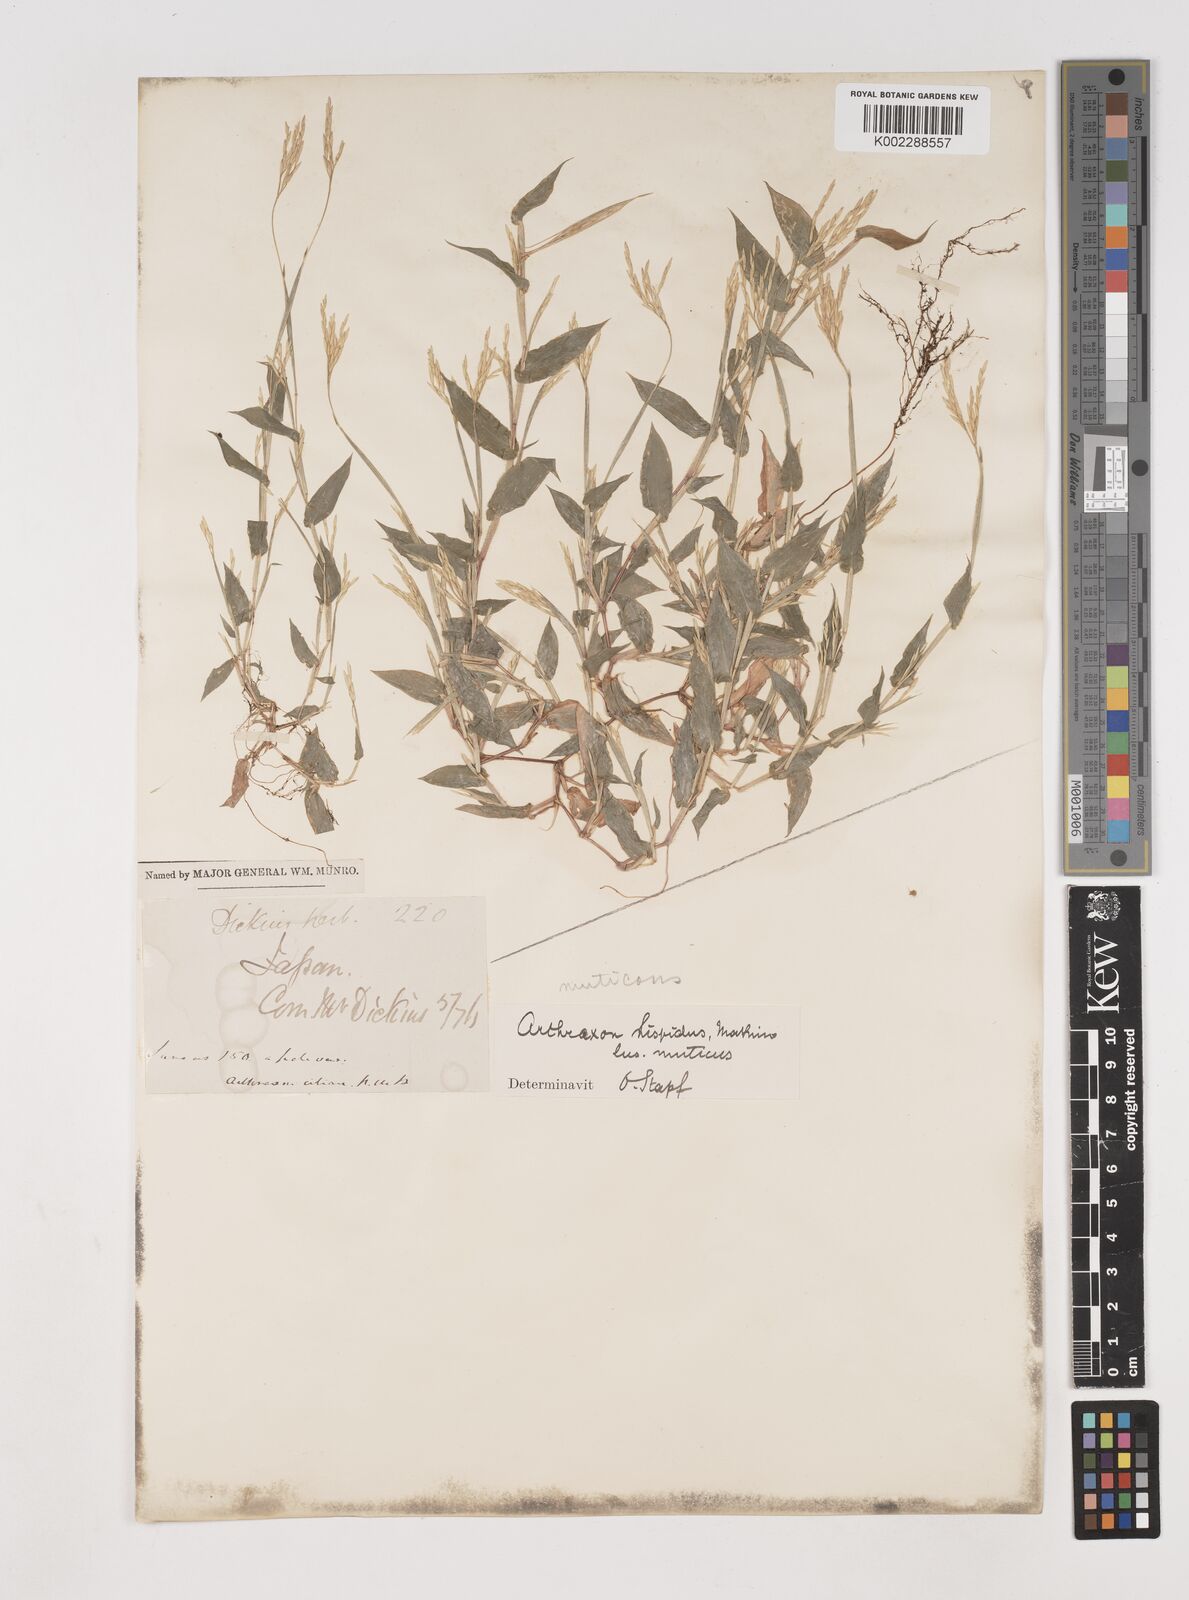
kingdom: Plantae
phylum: Tracheophyta
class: Liliopsida
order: Poales
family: Poaceae
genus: Arthraxon
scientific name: Arthraxon hispidus
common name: Small carpgrass
